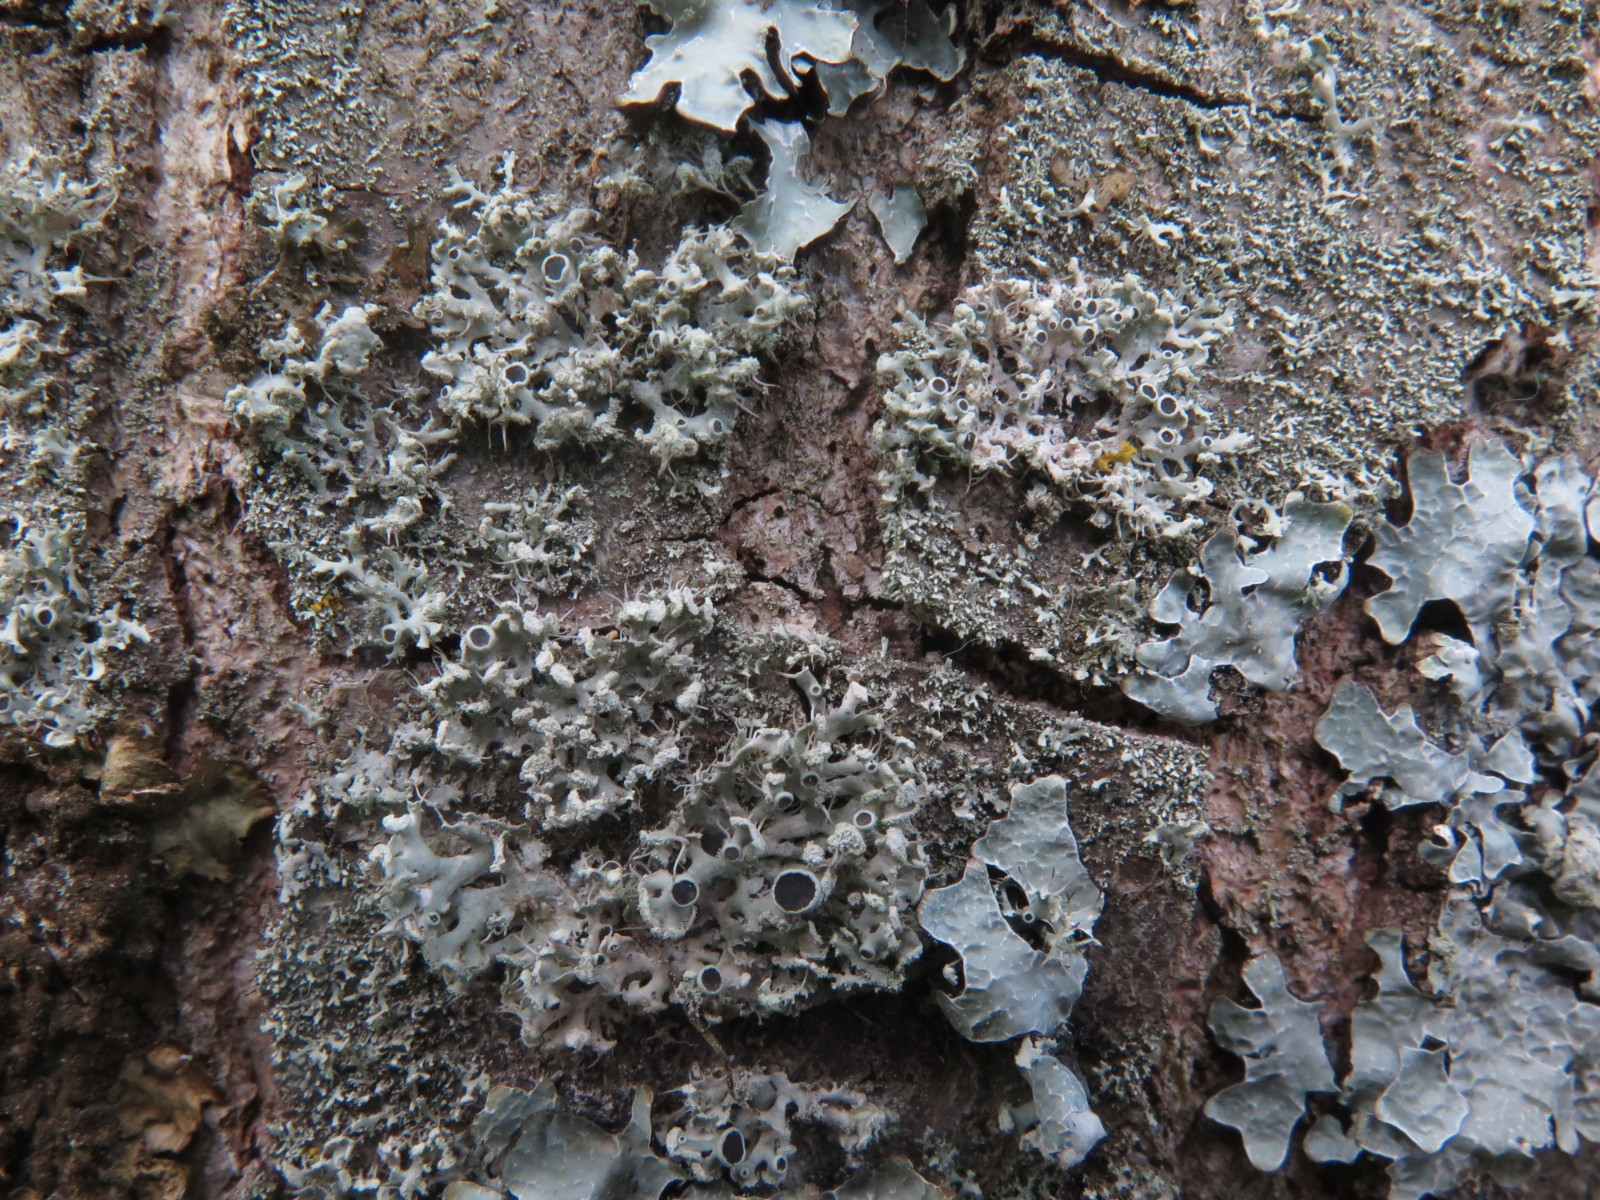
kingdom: Fungi
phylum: Ascomycota
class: Lecanoromycetes
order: Caliciales
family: Physciaceae
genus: Physcia
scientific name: Physcia tenella
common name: spæd rosetlav
